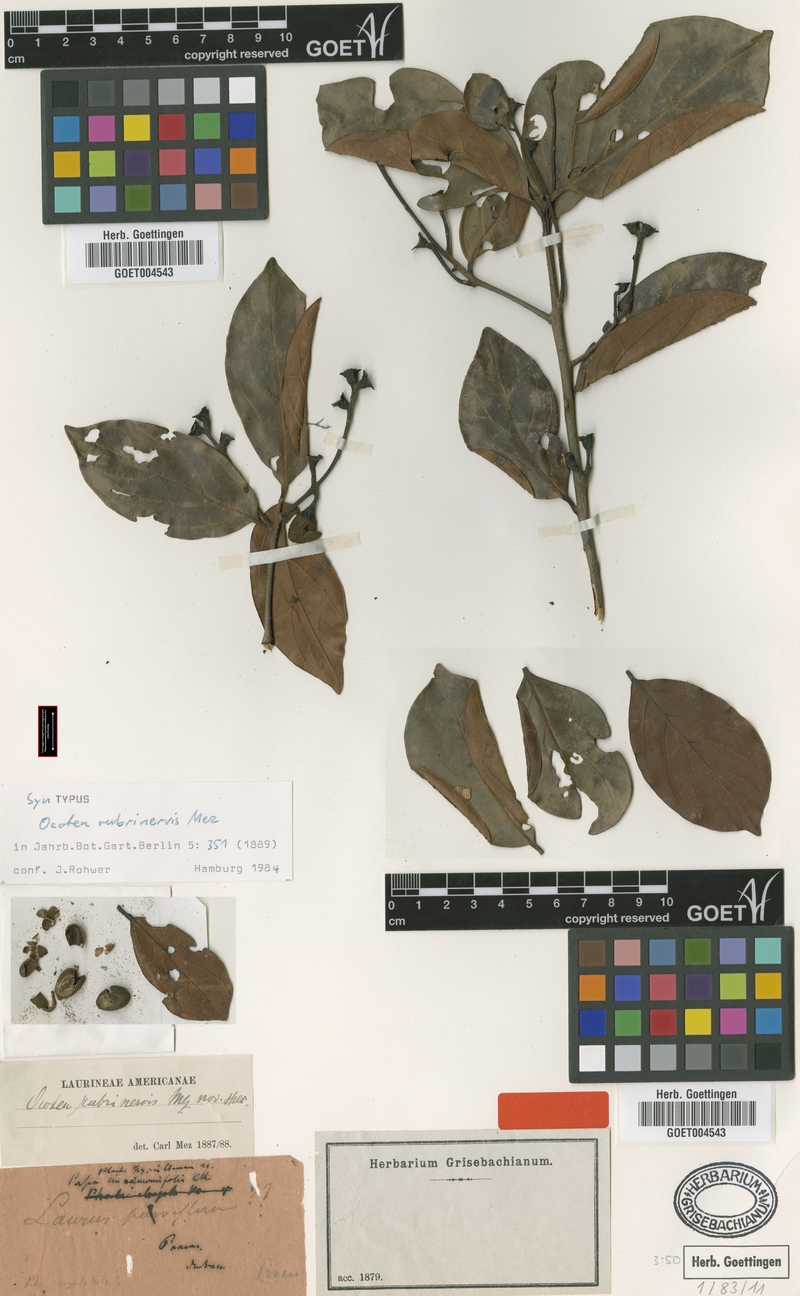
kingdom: Plantae
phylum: Tracheophyta
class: Magnoliopsida
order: Laurales
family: Lauraceae
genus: Ocotea
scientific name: Ocotea rubrinervis
